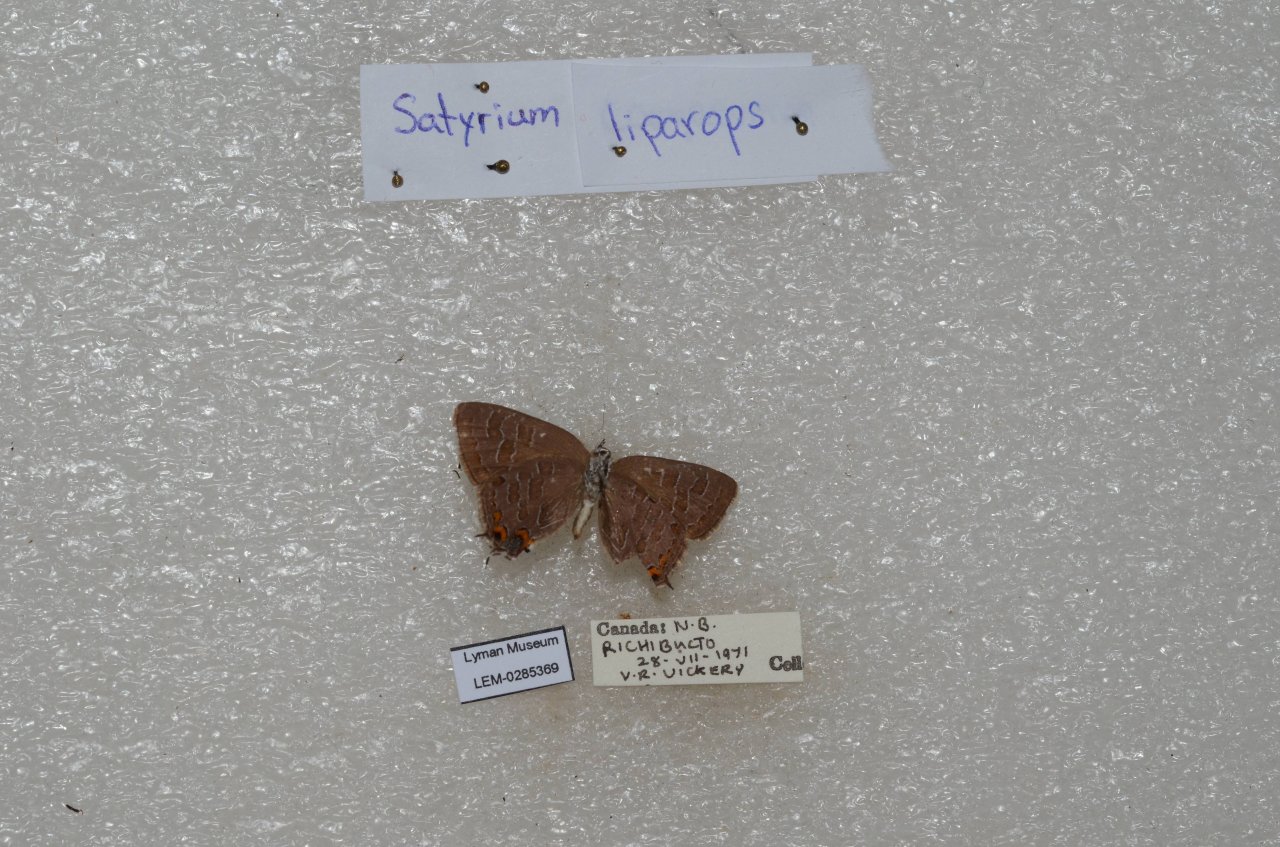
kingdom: Animalia
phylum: Arthropoda
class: Insecta
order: Lepidoptera
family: Lycaenidae
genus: Satyrium
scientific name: Satyrium liparops
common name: Striped Hairstreak
